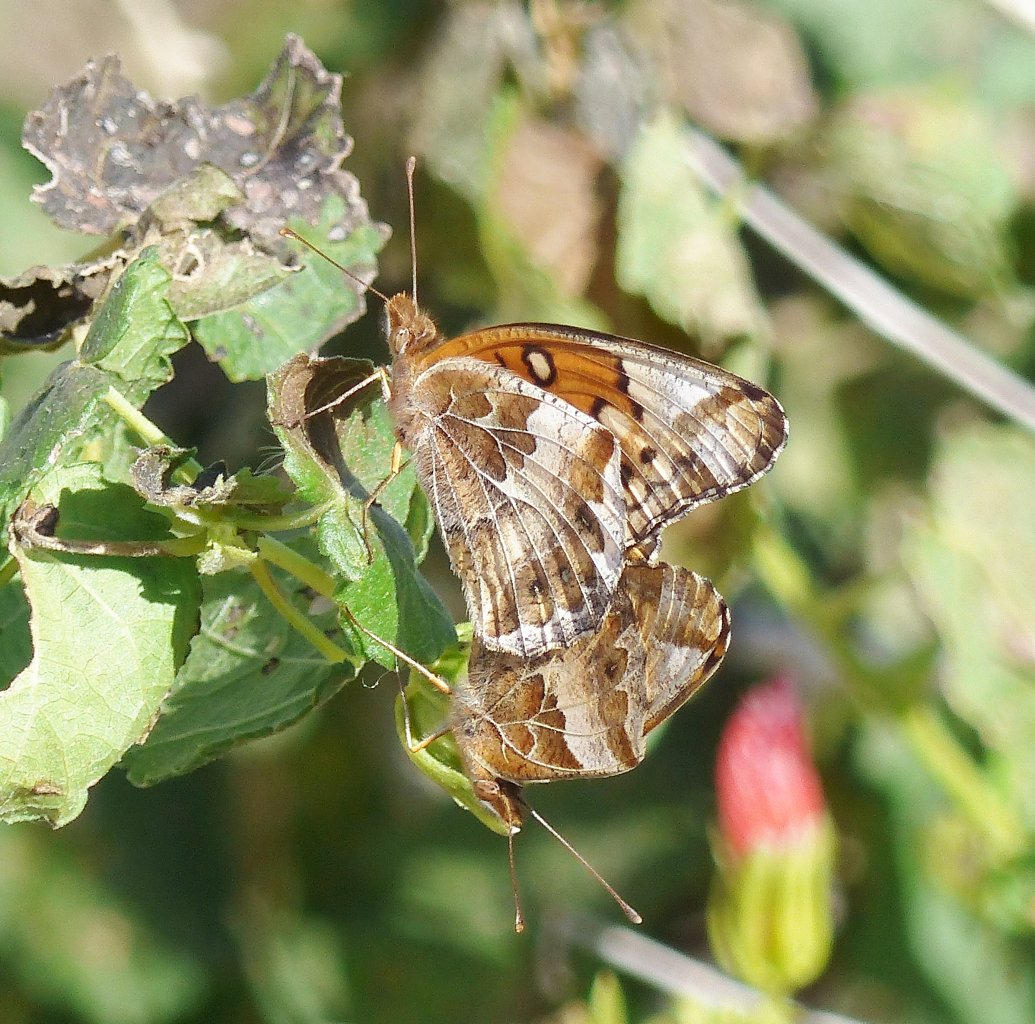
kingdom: Animalia
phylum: Arthropoda
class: Insecta
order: Lepidoptera
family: Nymphalidae
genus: Euptoieta
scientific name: Euptoieta claudia
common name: Variegated Fritillary
